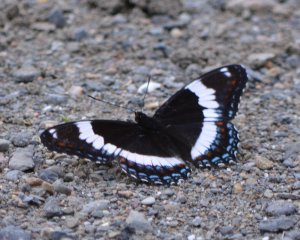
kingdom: Animalia
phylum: Arthropoda
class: Insecta
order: Lepidoptera
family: Nymphalidae
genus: Limenitis
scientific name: Limenitis arthemis
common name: Red-spotted Admiral
